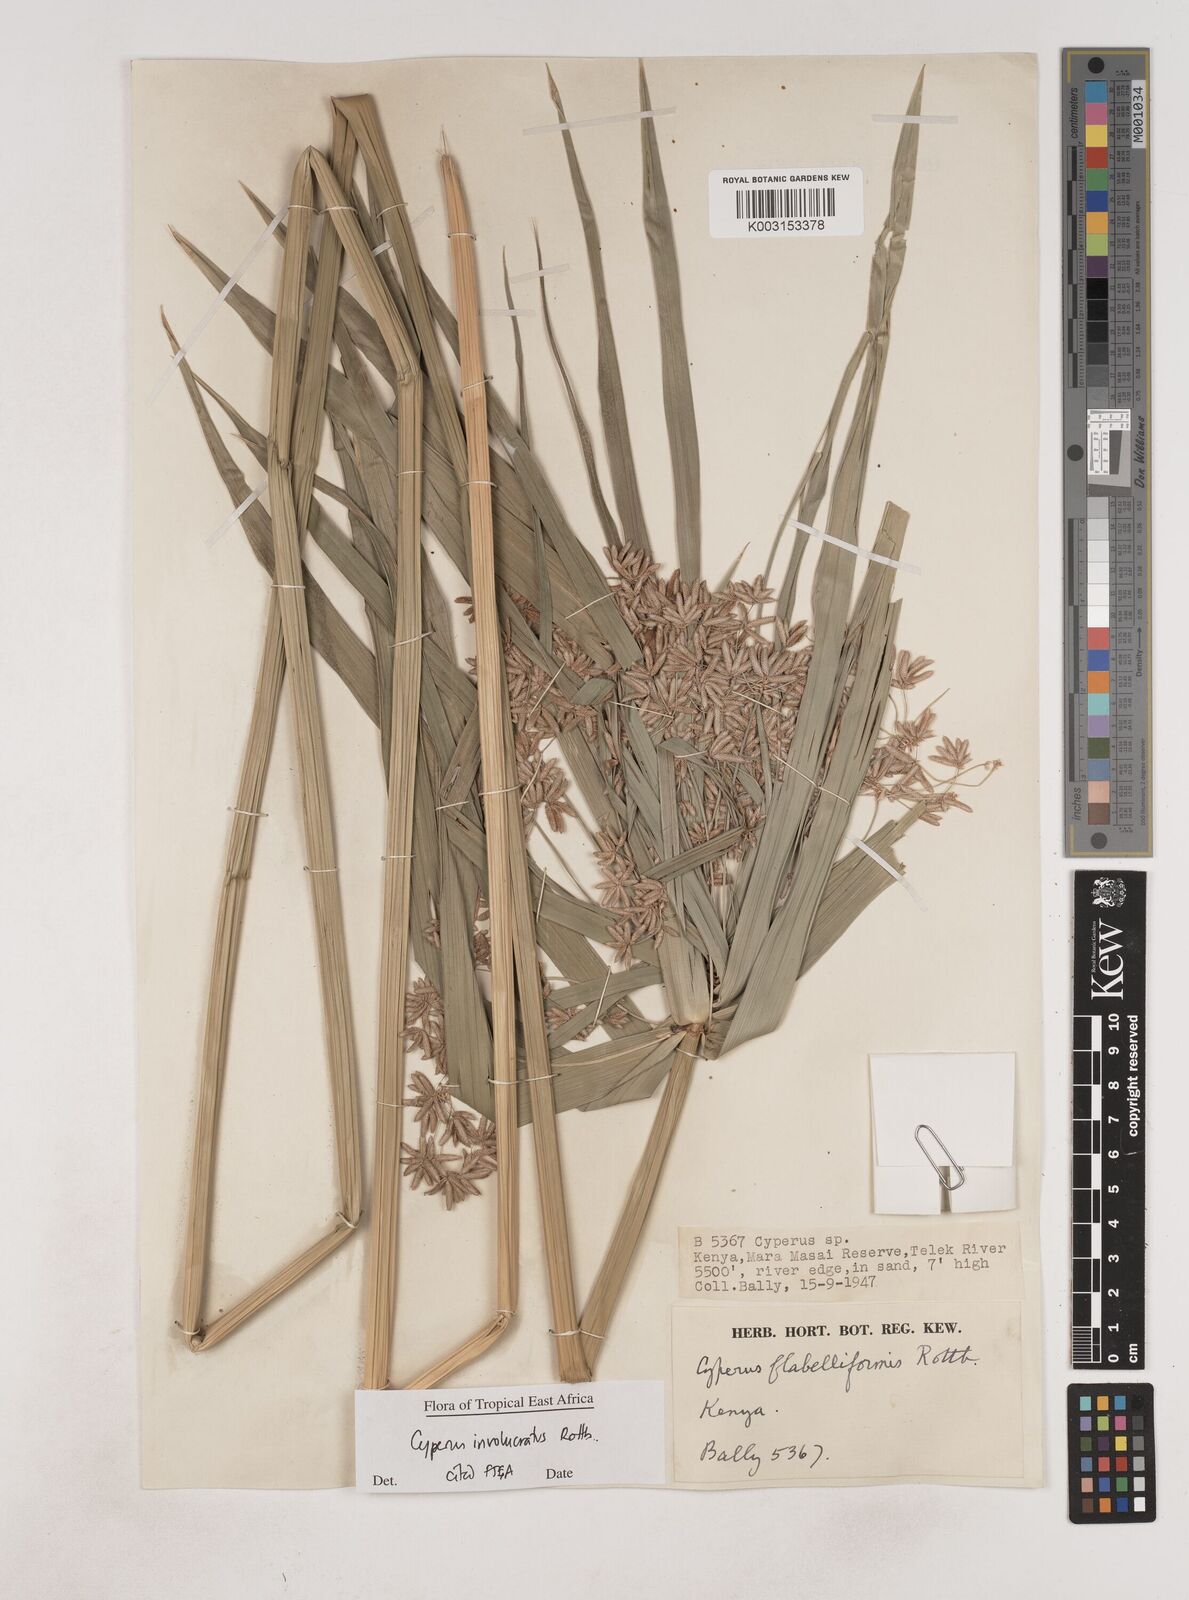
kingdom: Plantae
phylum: Tracheophyta
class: Liliopsida
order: Poales
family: Cyperaceae
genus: Cyperus
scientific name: Cyperus alternifolius
